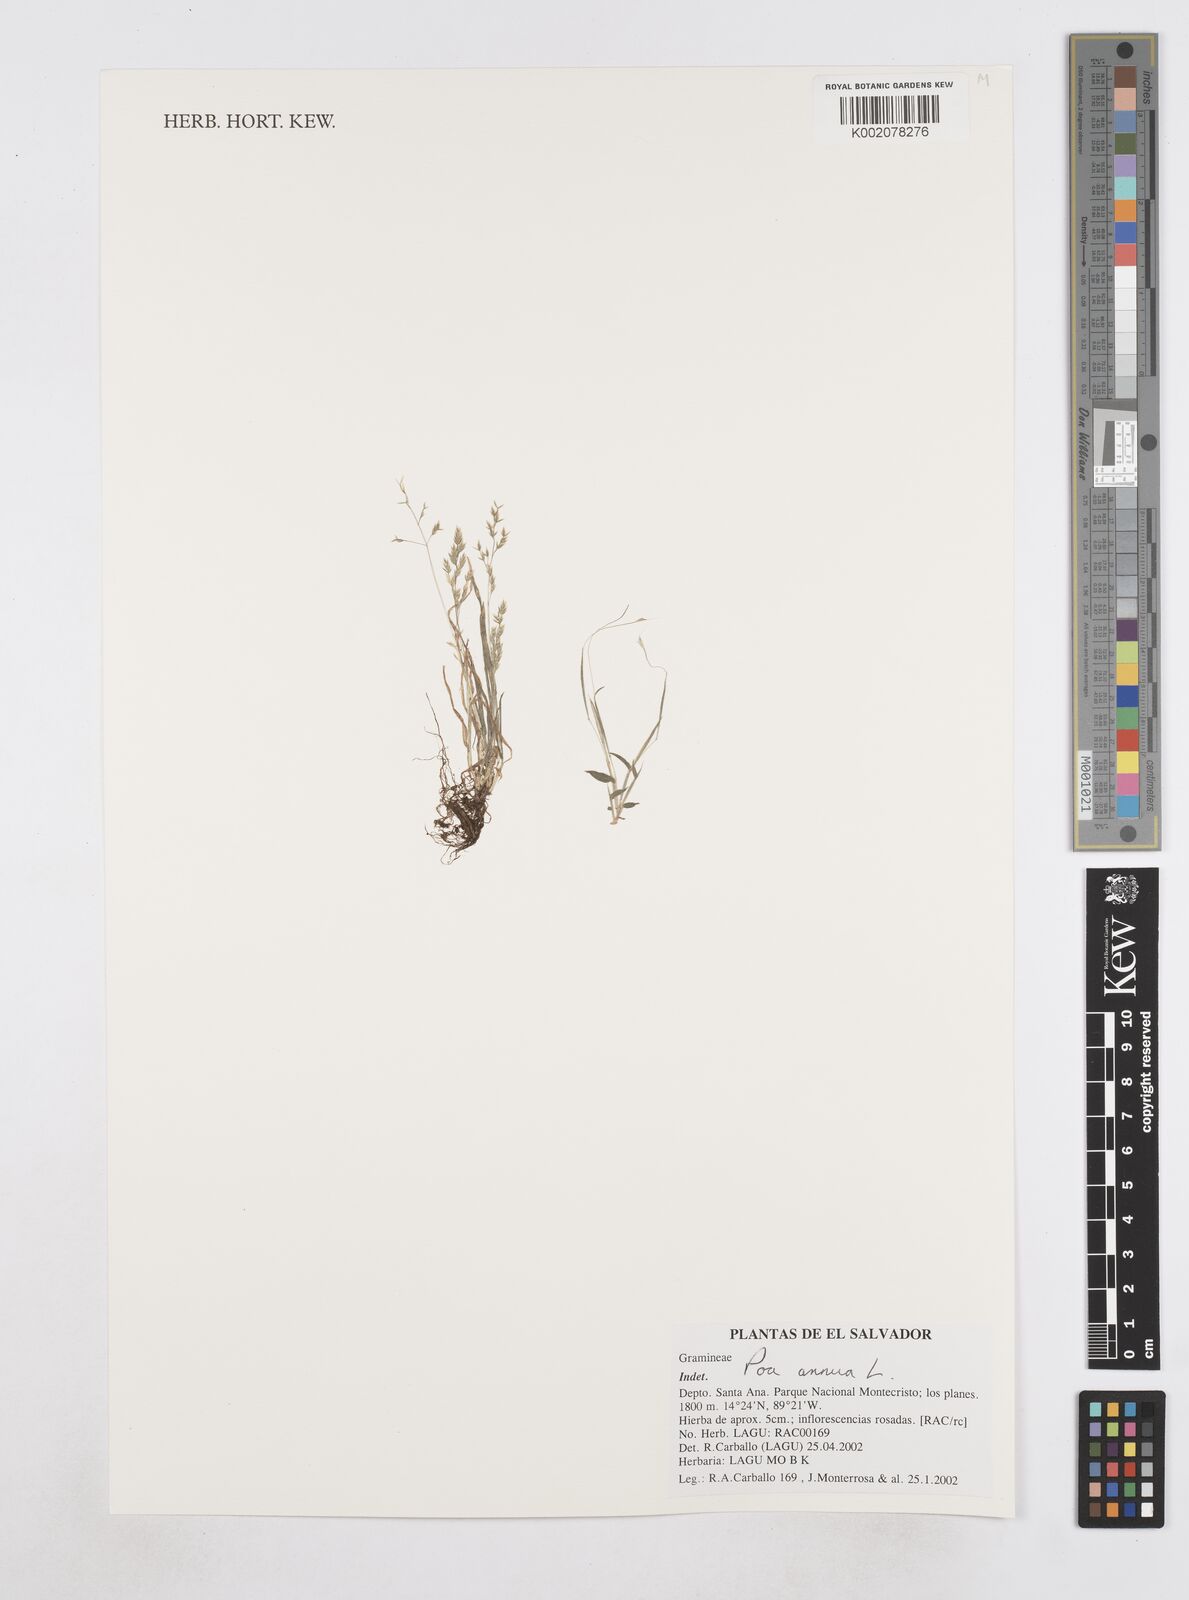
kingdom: Plantae
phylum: Tracheophyta
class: Liliopsida
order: Poales
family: Poaceae
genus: Poa
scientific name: Poa annua
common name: Annual bluegrass
